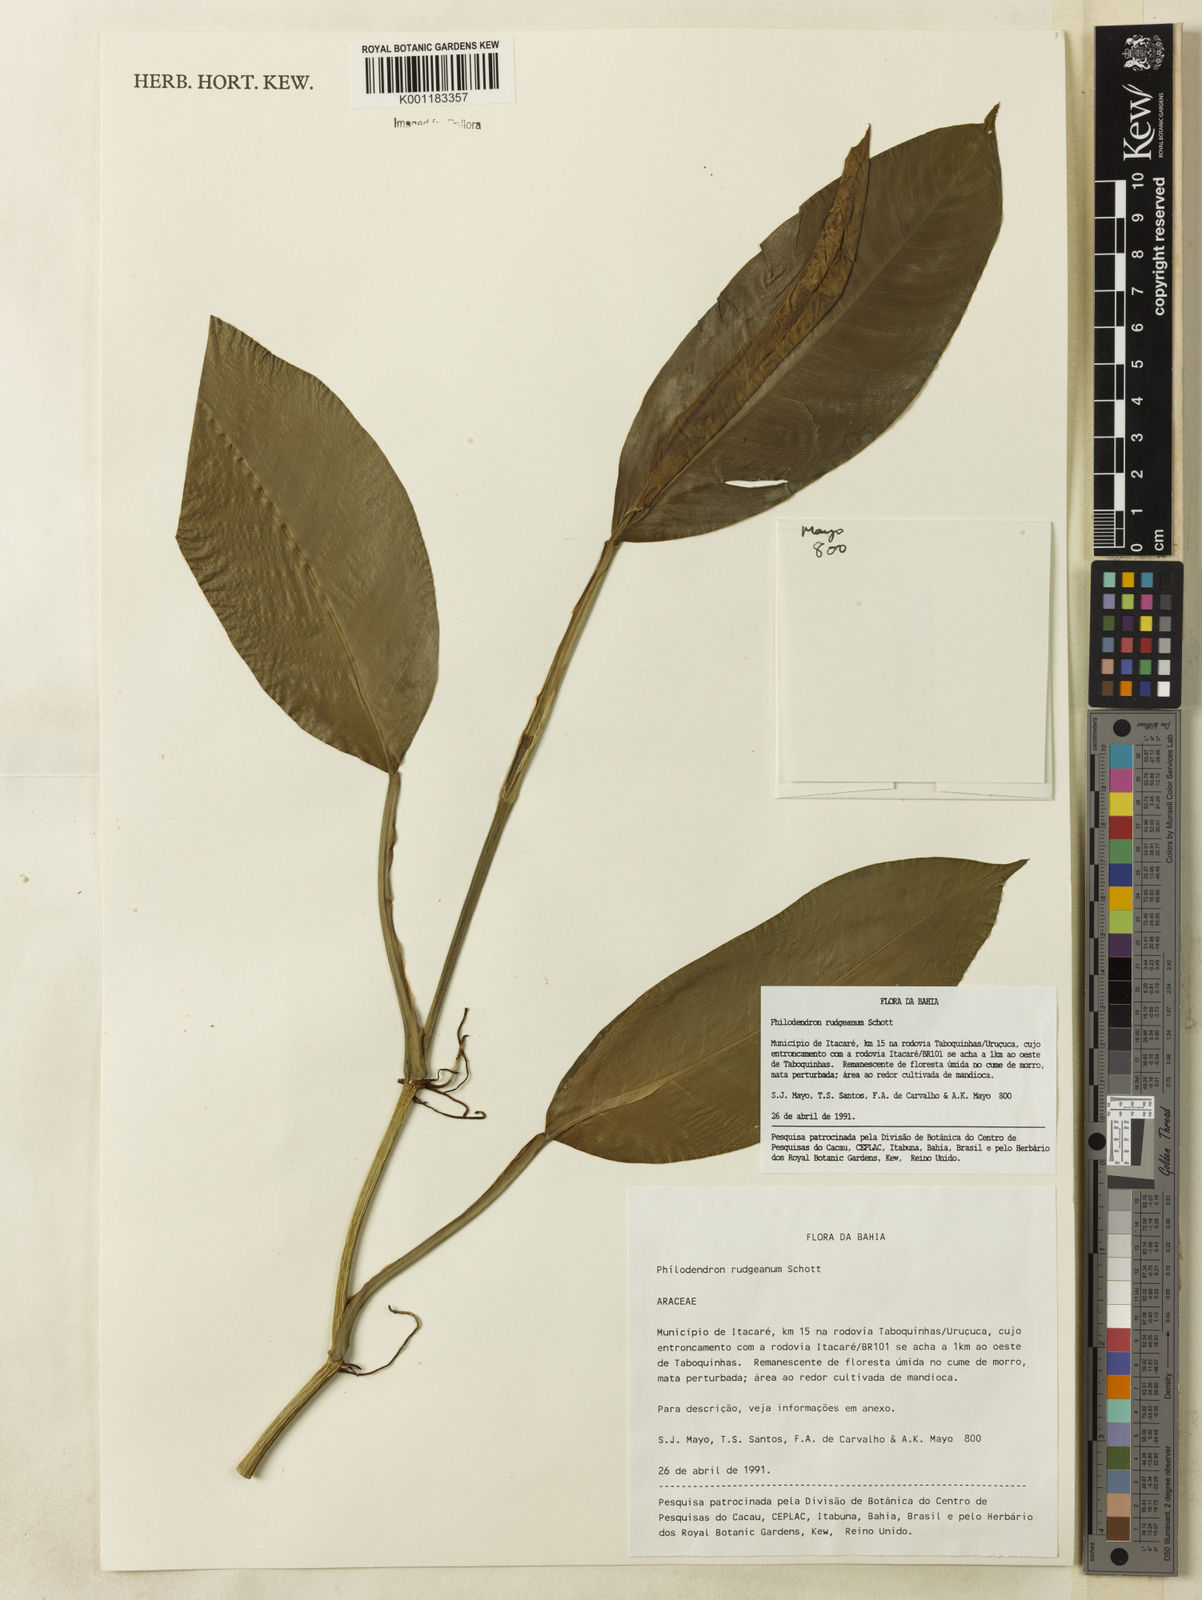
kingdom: Plantae
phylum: Tracheophyta
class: Liliopsida
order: Alismatales
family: Araceae
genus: Philodendron
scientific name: Philodendron rudgeanum
